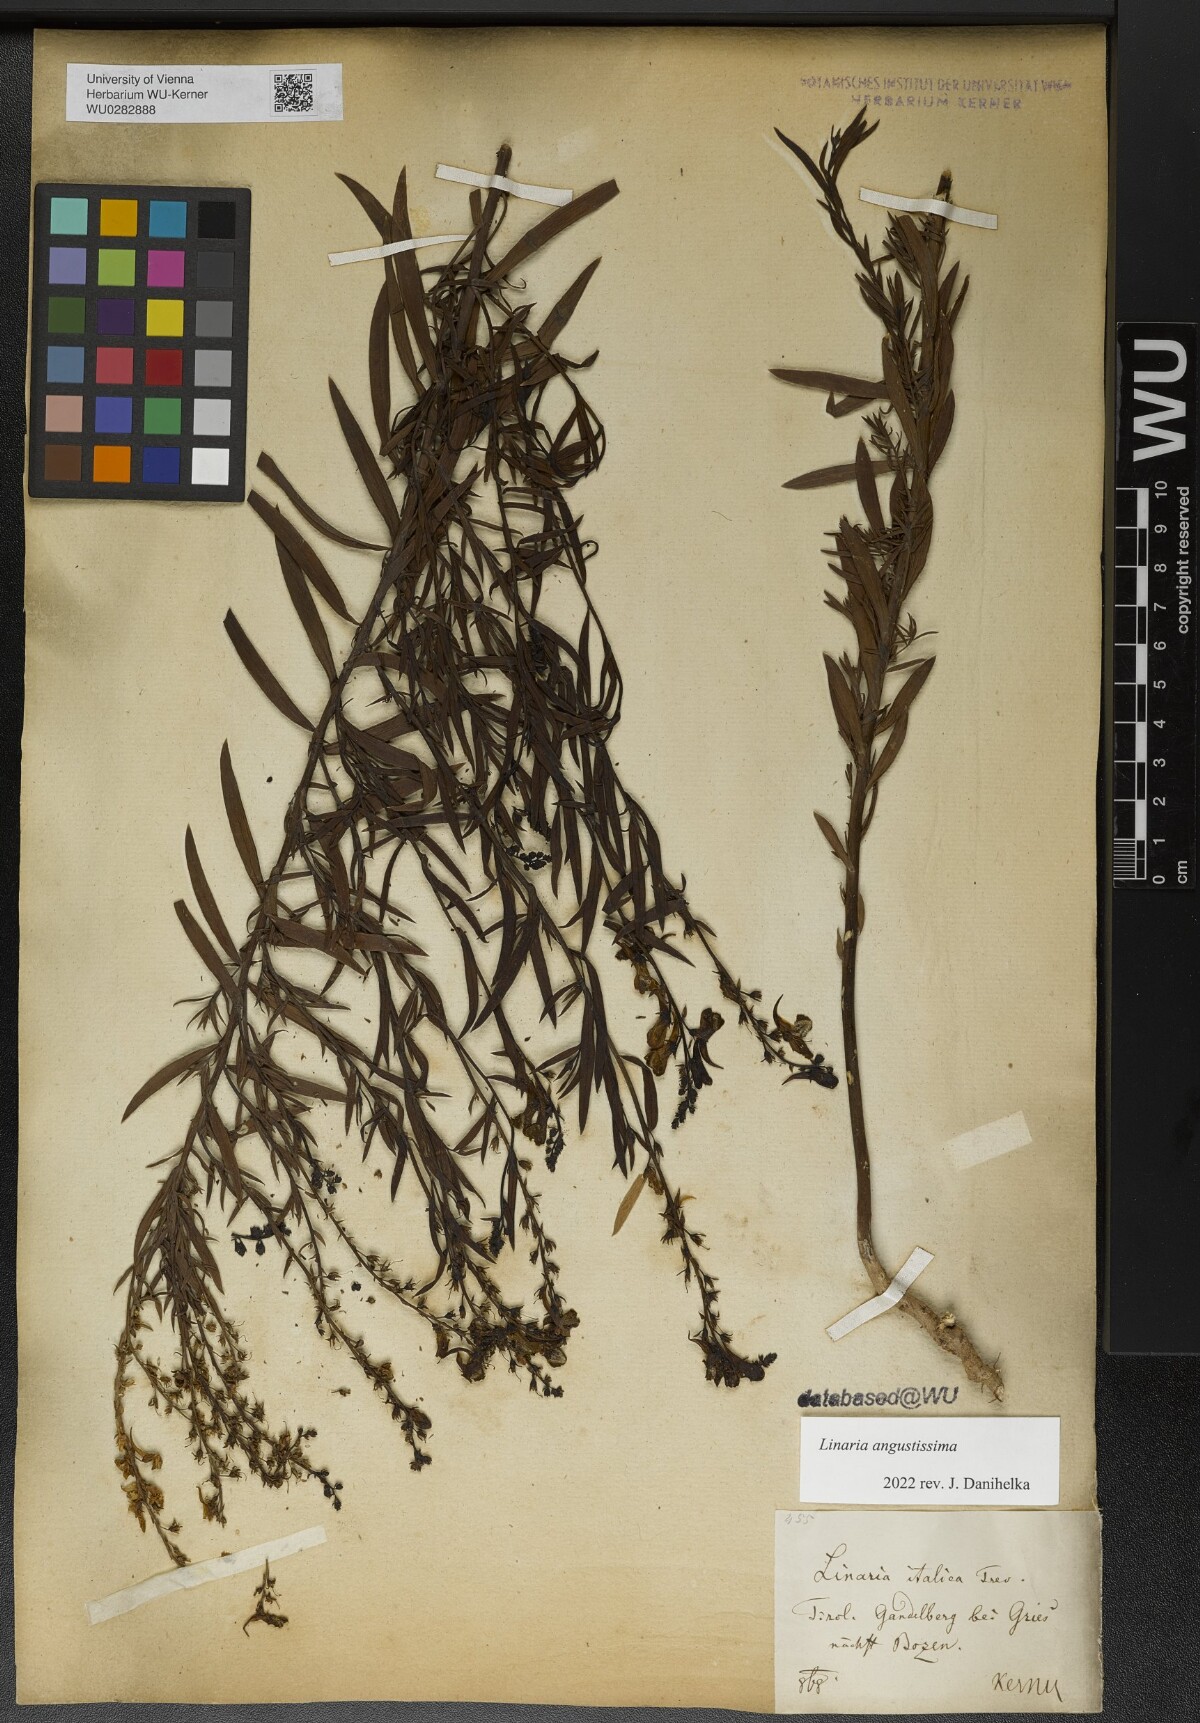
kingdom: Plantae
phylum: Tracheophyta
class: Magnoliopsida
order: Lamiales
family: Plantaginaceae
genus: Linaria
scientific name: Linaria angustissima
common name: Italian toadflax
